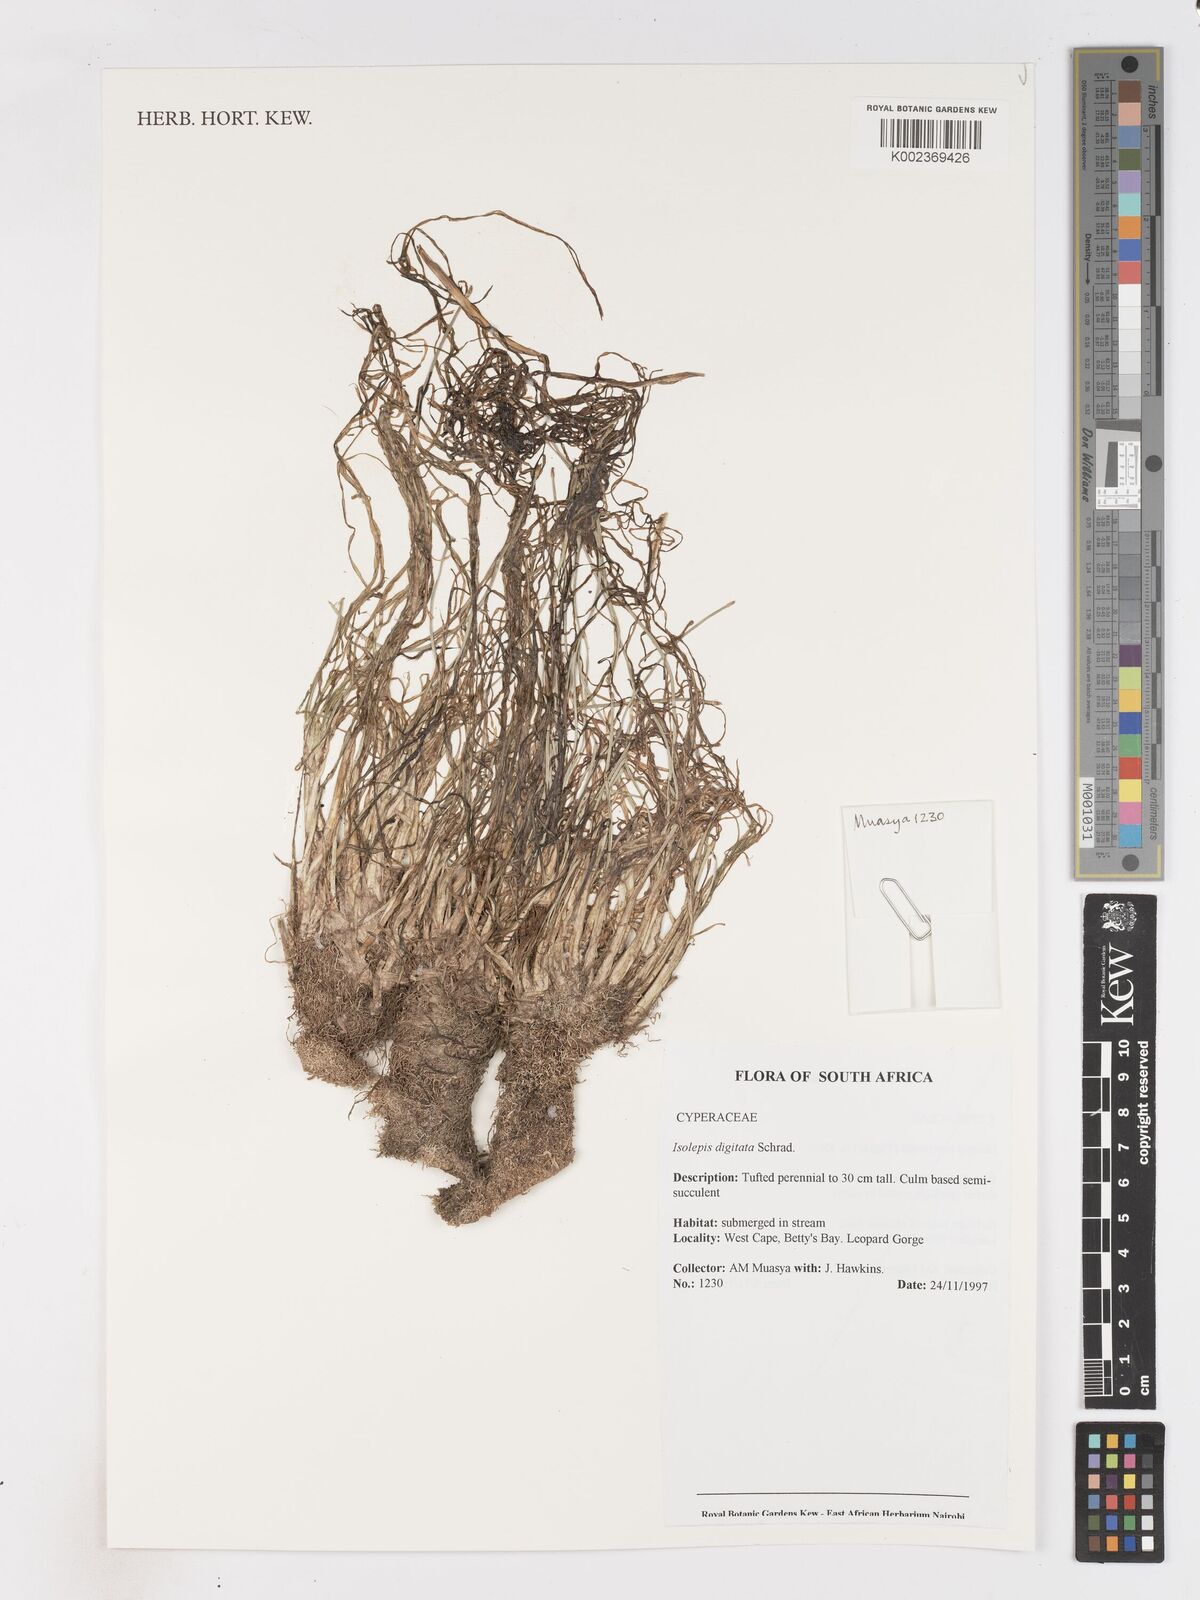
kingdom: Plantae
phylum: Tracheophyta
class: Liliopsida
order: Poales
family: Cyperaceae
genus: Isolepis
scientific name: Isolepis digitata
